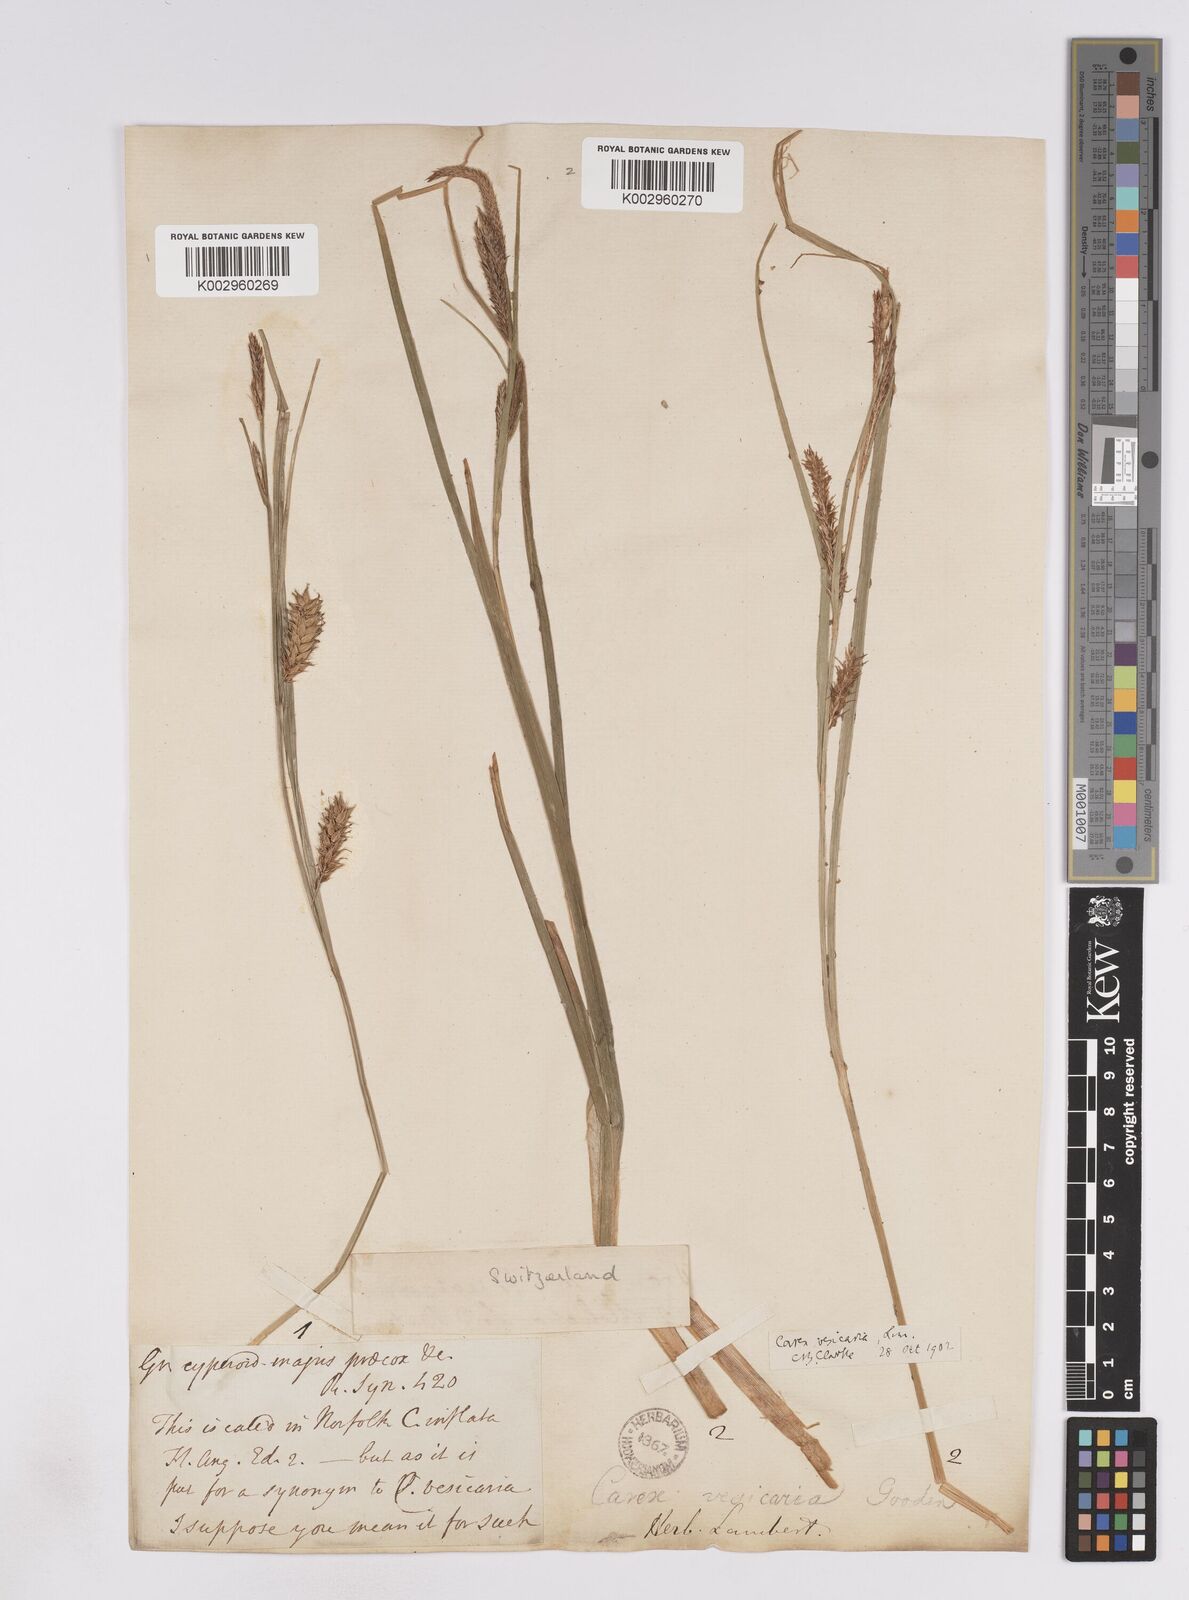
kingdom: Plantae
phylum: Tracheophyta
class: Liliopsida
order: Poales
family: Cyperaceae
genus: Carex
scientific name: Carex vesicaria
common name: Bladder-sedge
